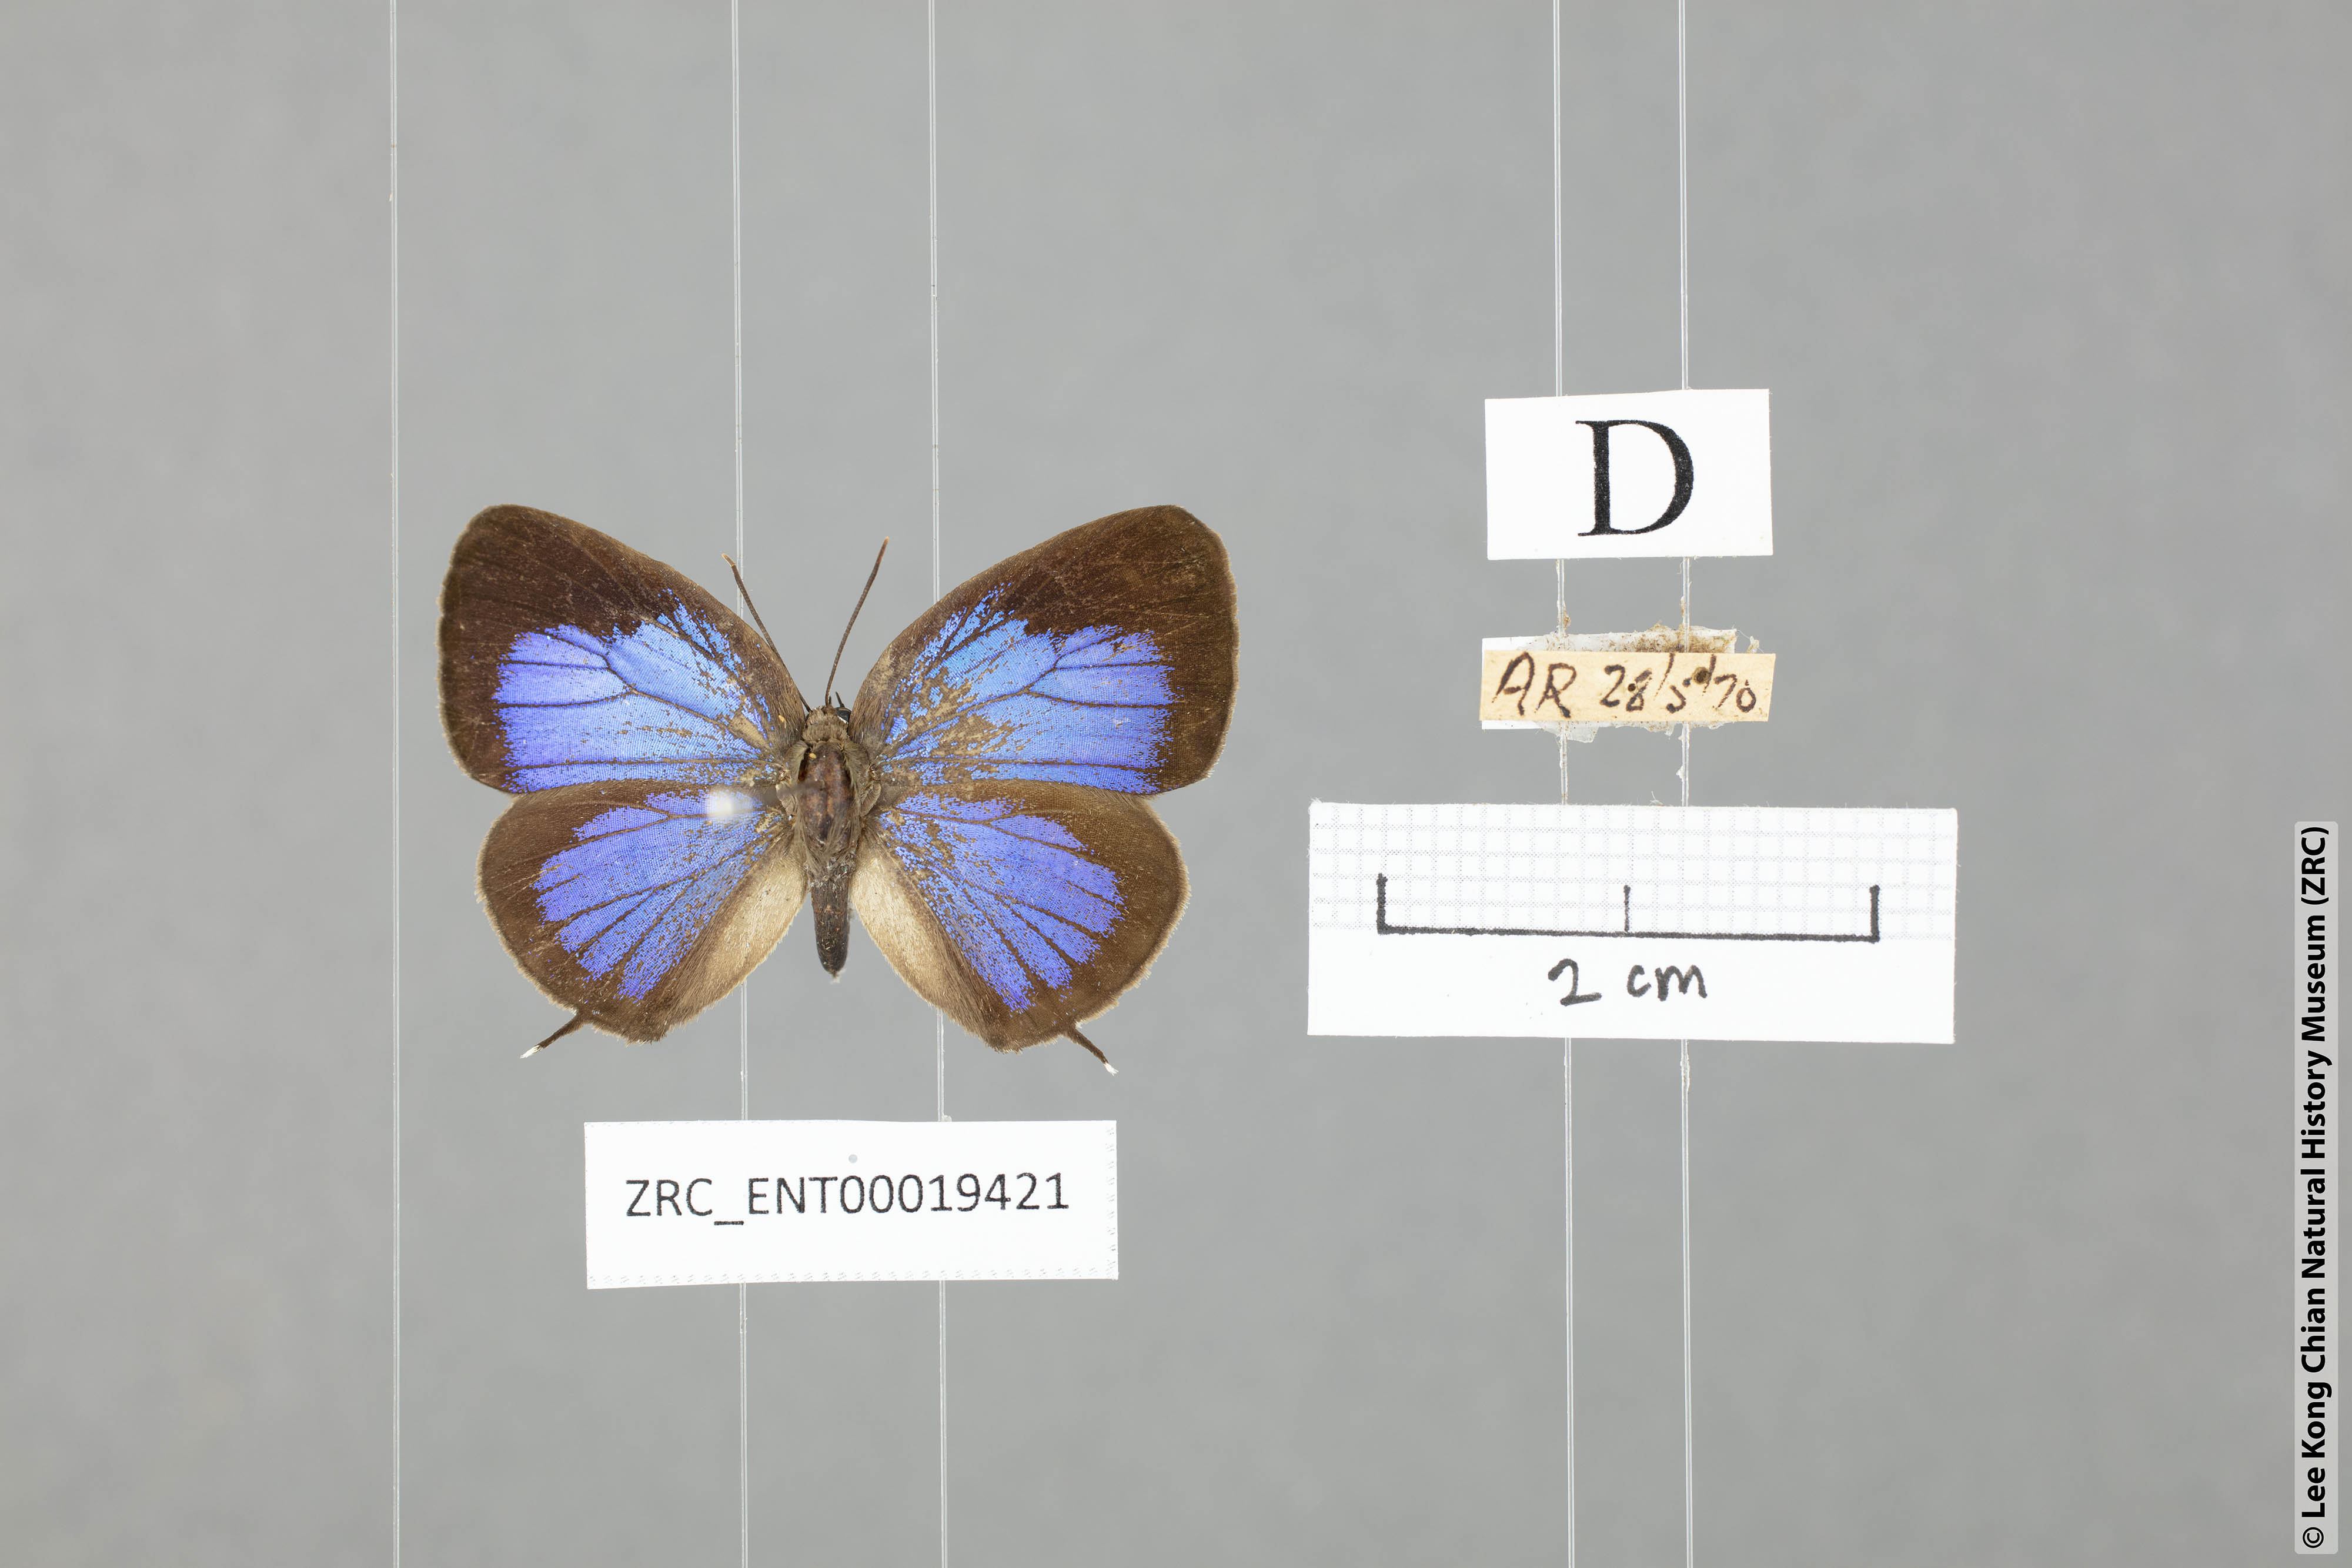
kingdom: Animalia
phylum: Arthropoda
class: Insecta
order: Lepidoptera
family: Lycaenidae
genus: Arhopala
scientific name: Arhopala elopura
